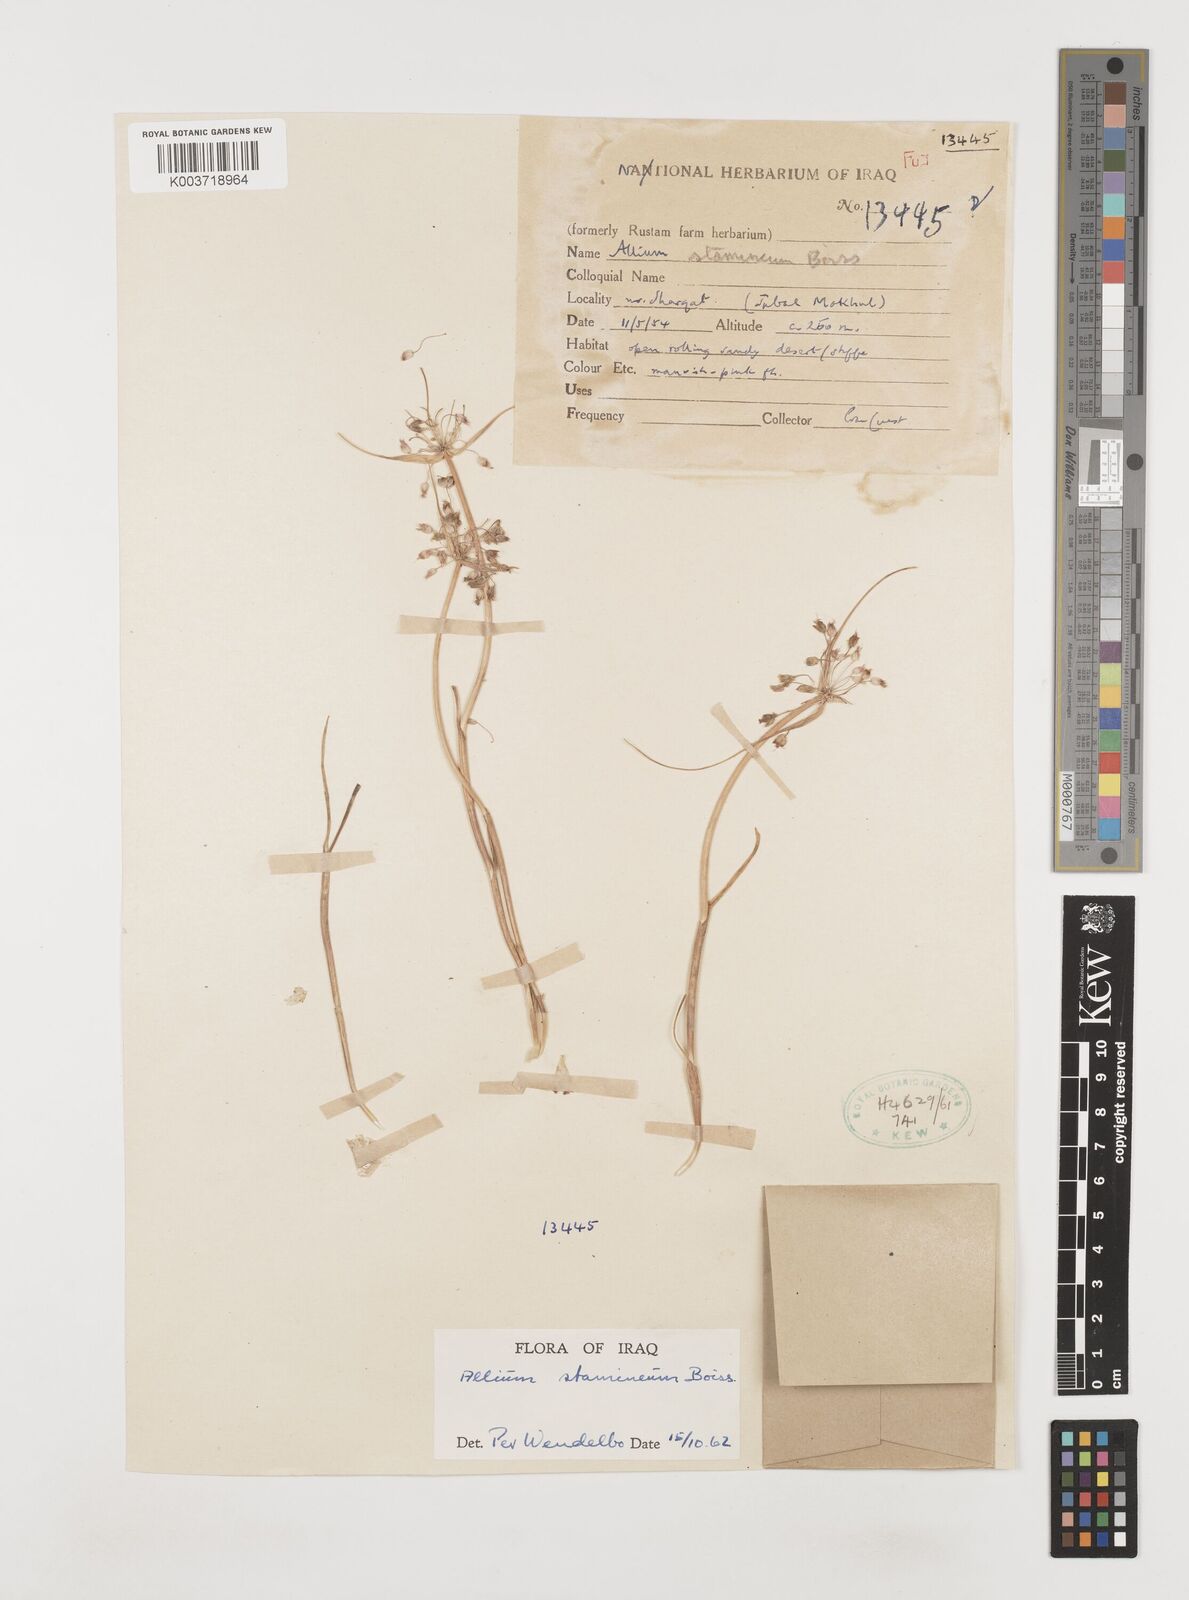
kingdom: Plantae
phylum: Tracheophyta
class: Liliopsida
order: Asparagales
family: Amaryllidaceae
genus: Allium
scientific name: Allium stamineum
